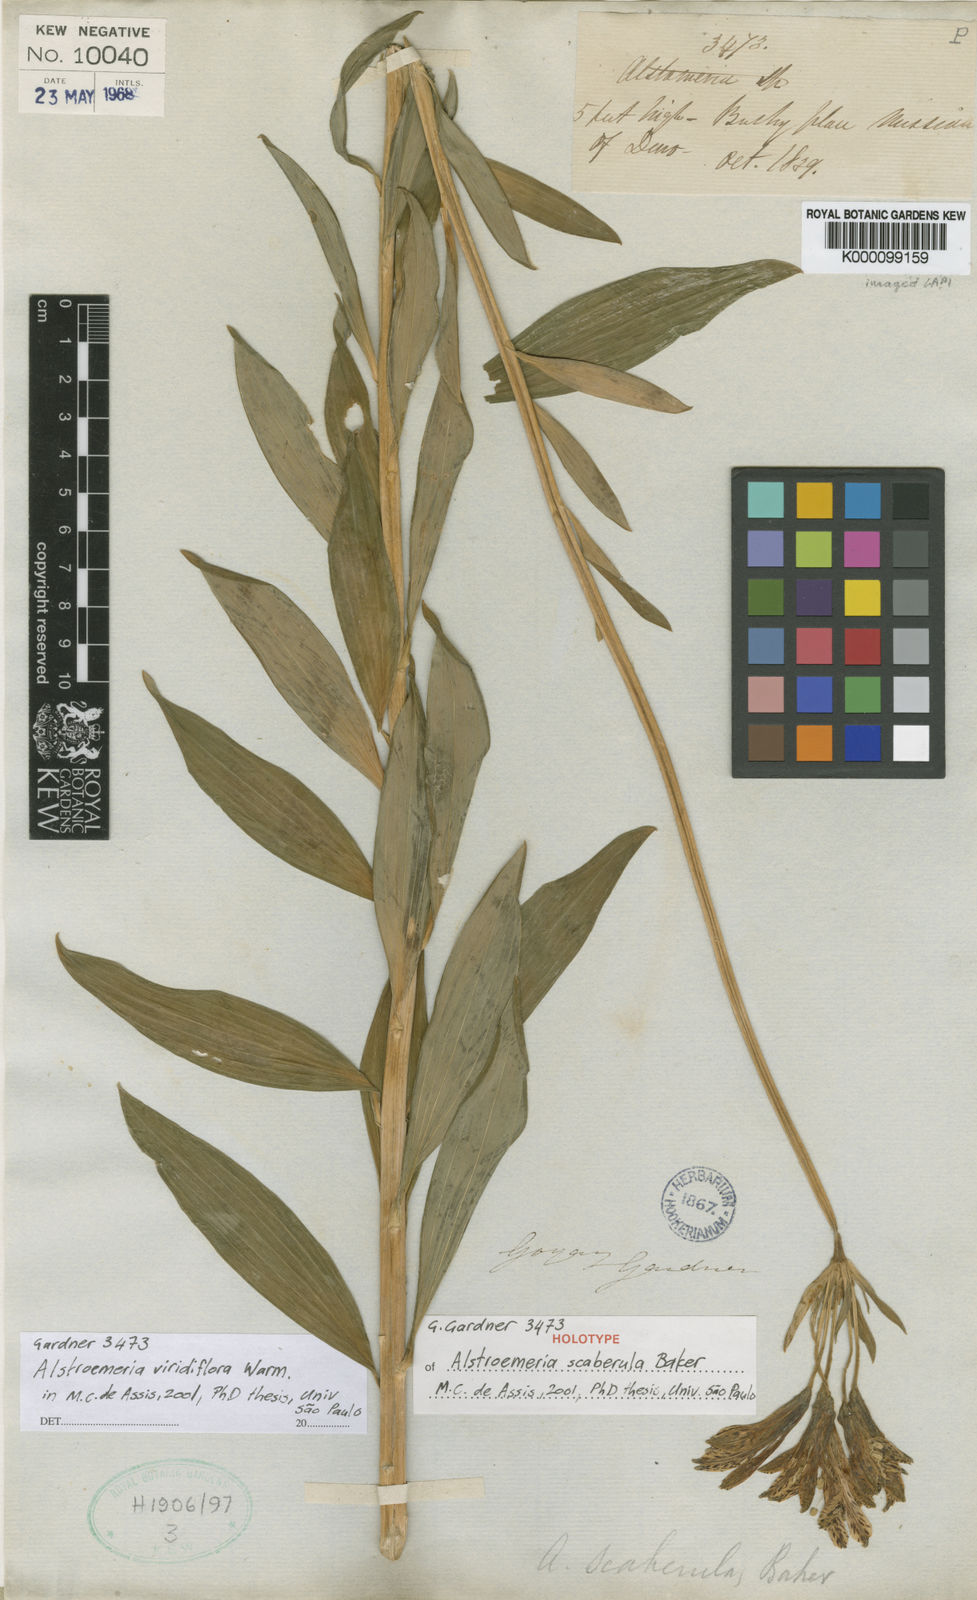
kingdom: Plantae
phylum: Tracheophyta
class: Liliopsida
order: Liliales
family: Alstroemeriaceae
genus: Alstroemeria
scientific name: Alstroemeria viridiflora
